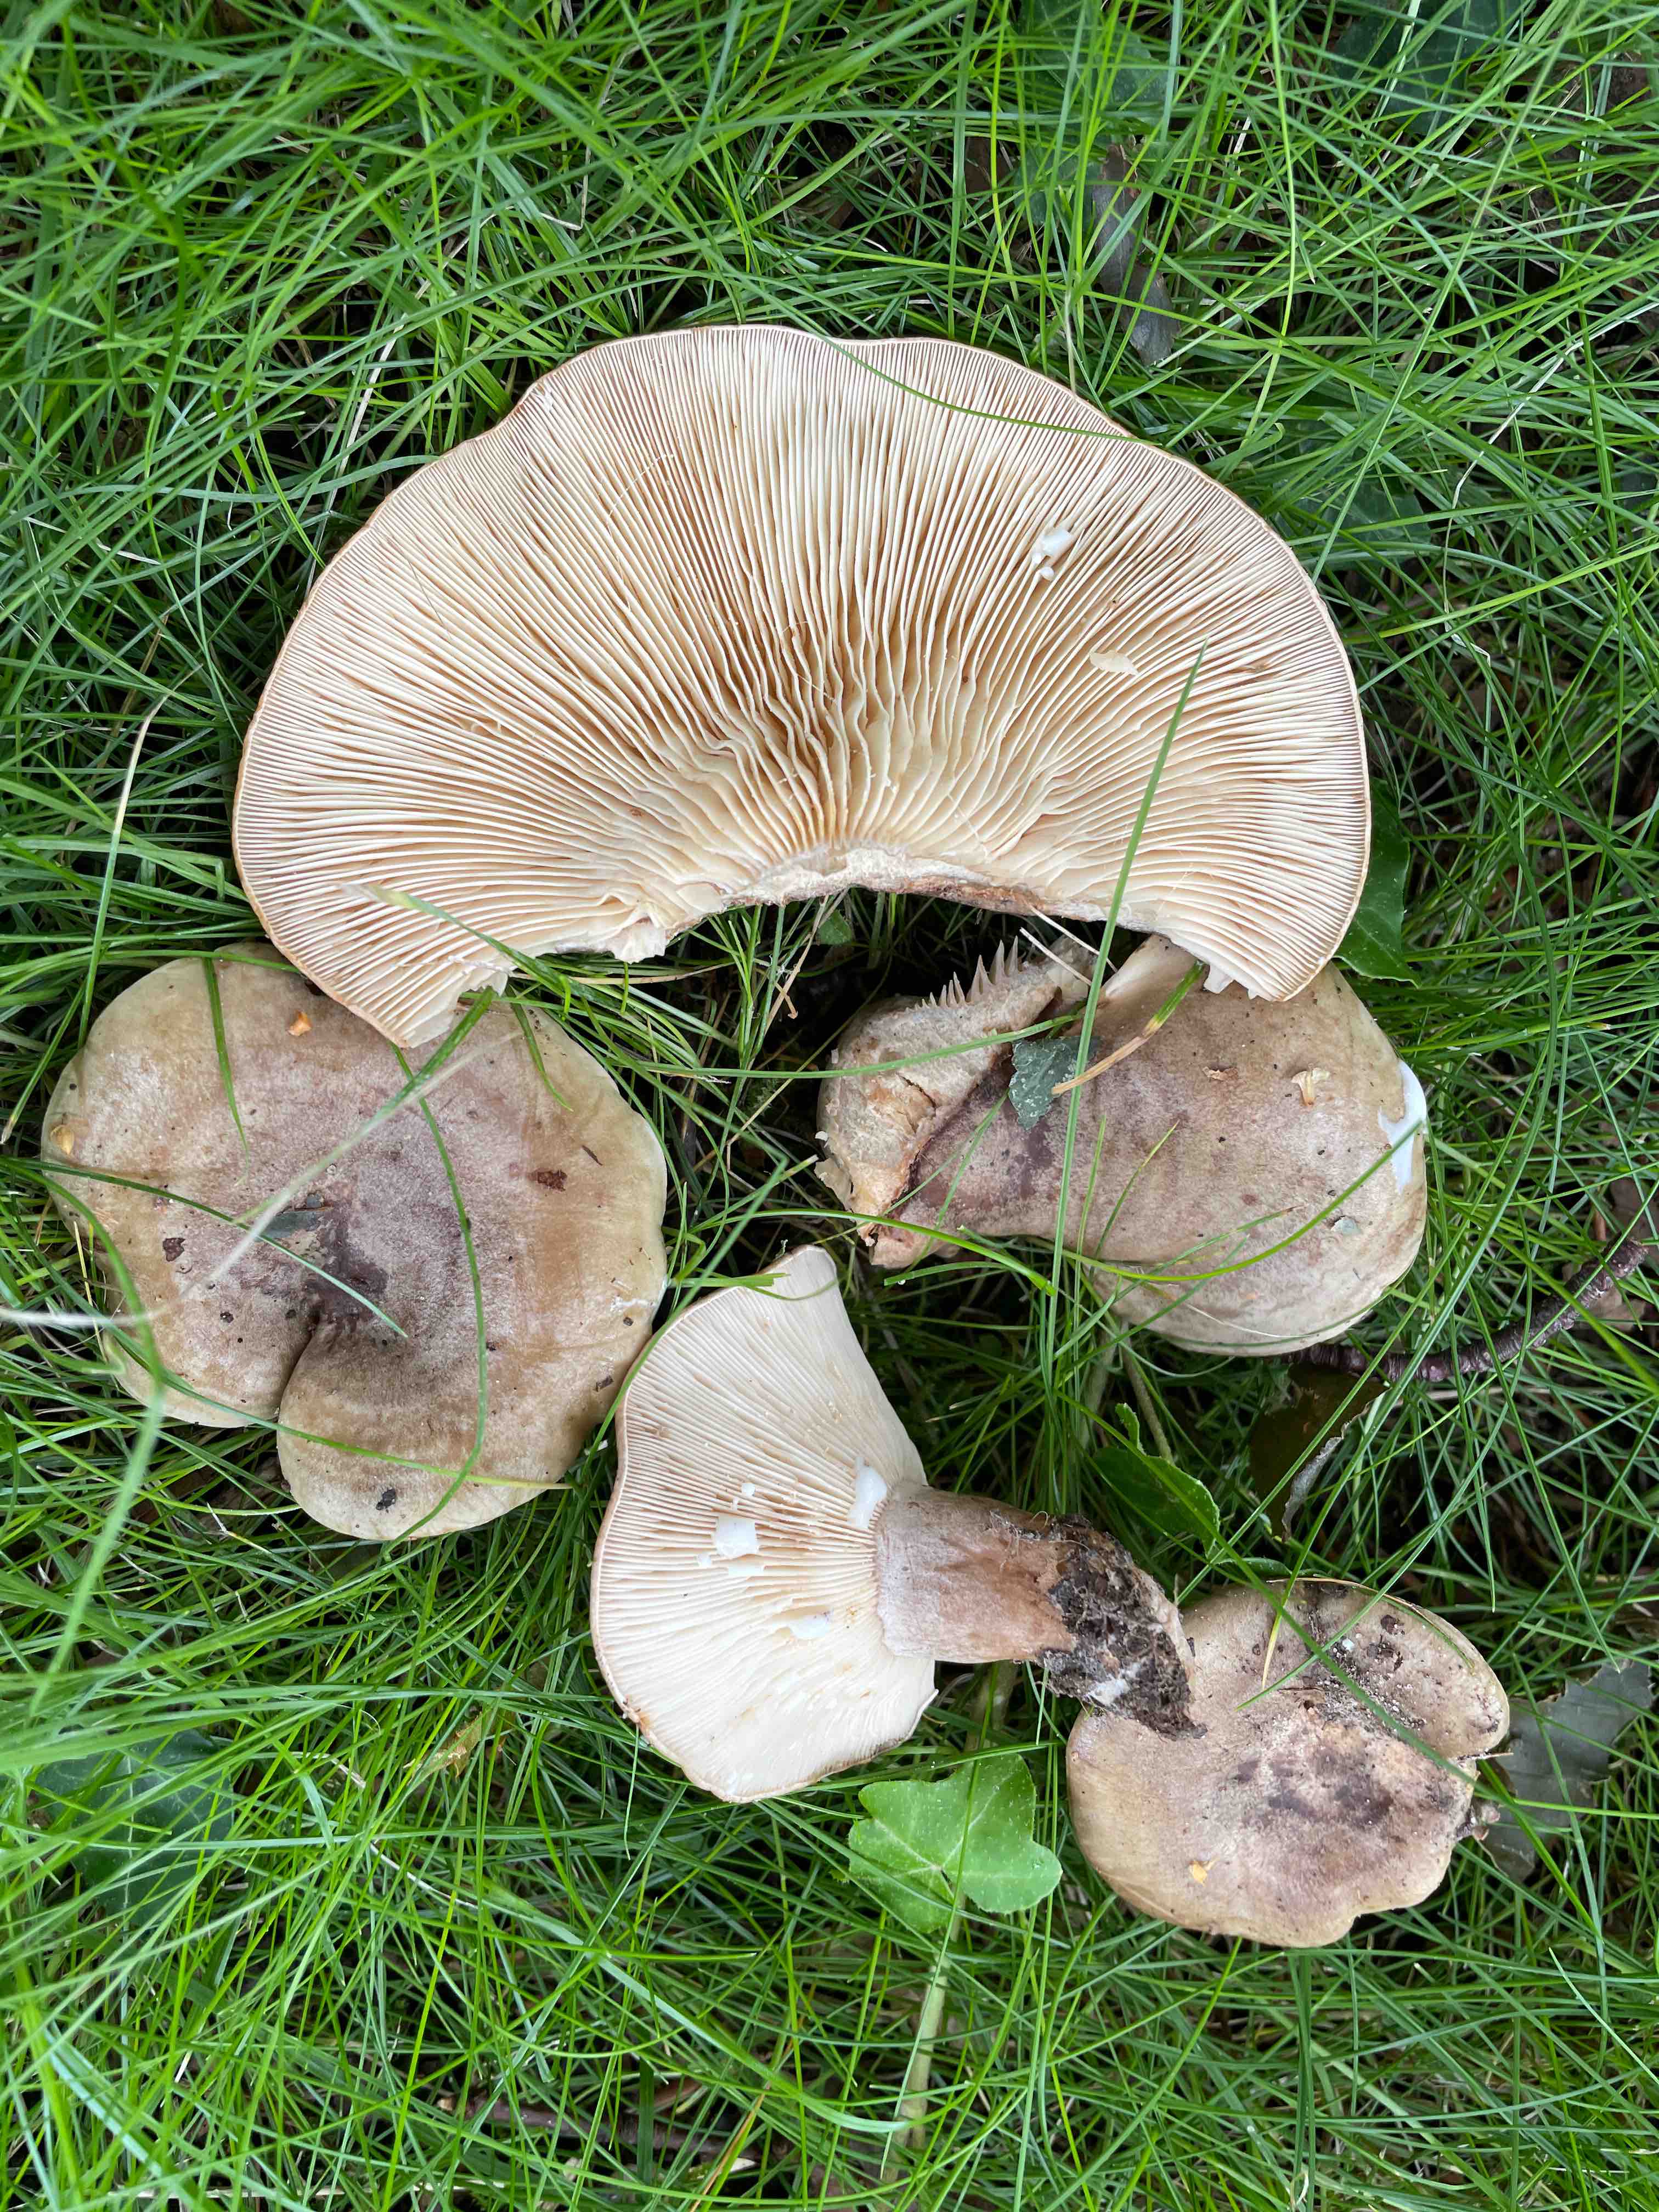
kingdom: Fungi
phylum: Basidiomycota
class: Agaricomycetes
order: Russulales
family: Russulaceae
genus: Lactarius
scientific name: Lactarius fluens
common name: lysrandet mælkehat
